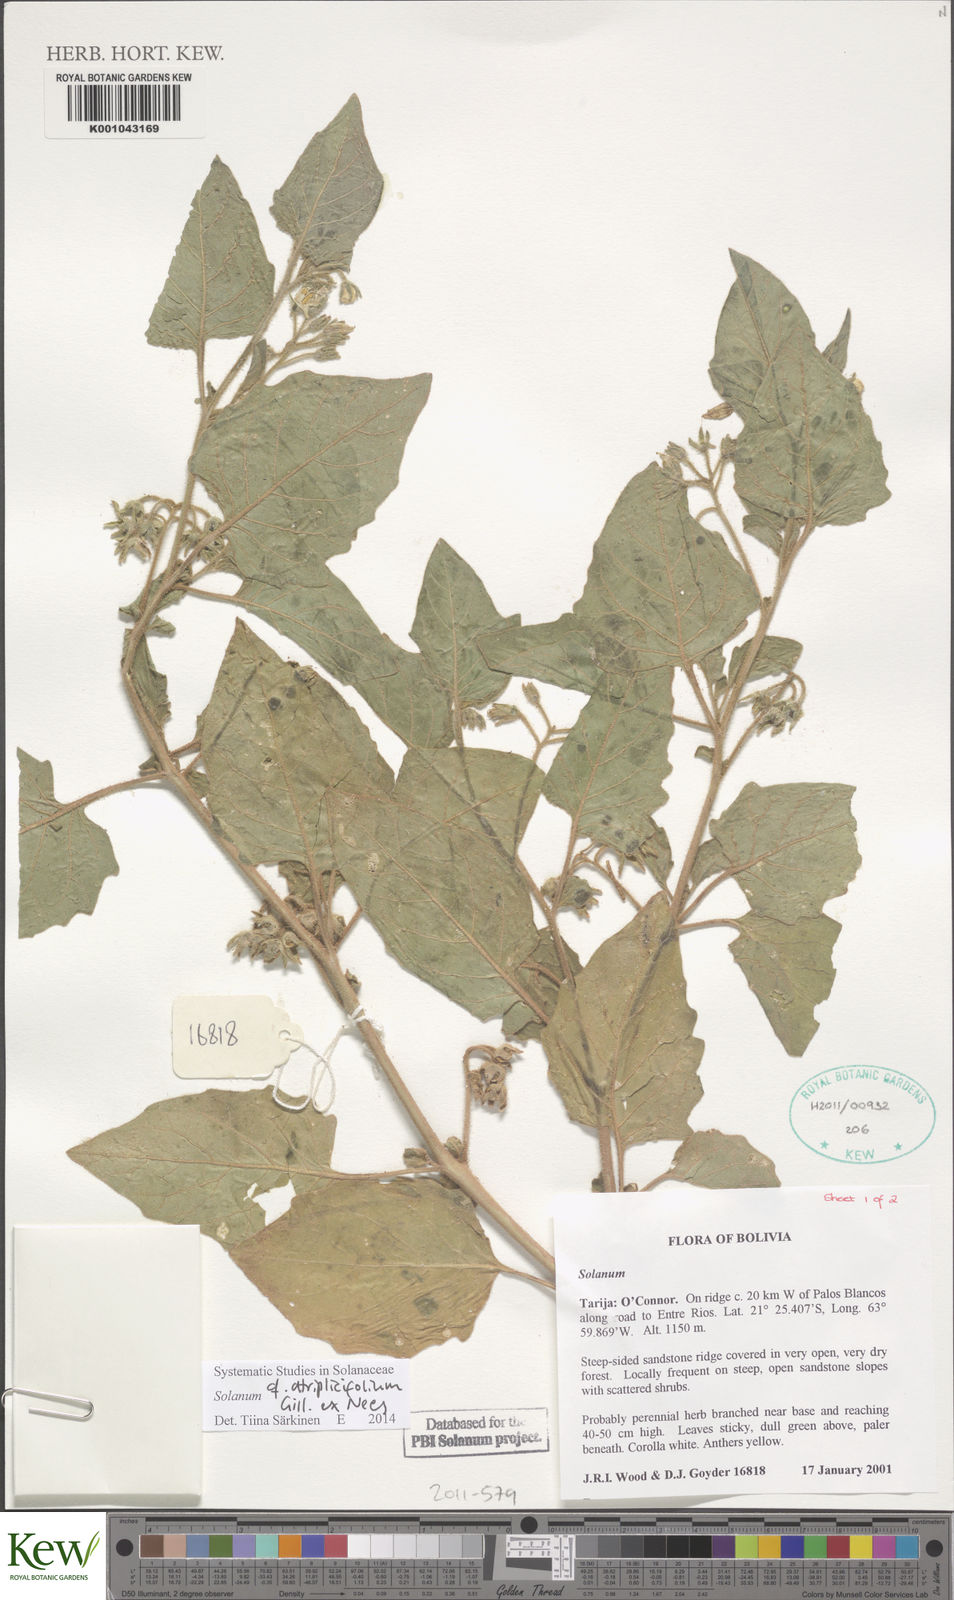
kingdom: Plantae
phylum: Tracheophyta
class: Magnoliopsida
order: Solanales
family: Solanaceae
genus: Solanum
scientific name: Solanum tweedianum
